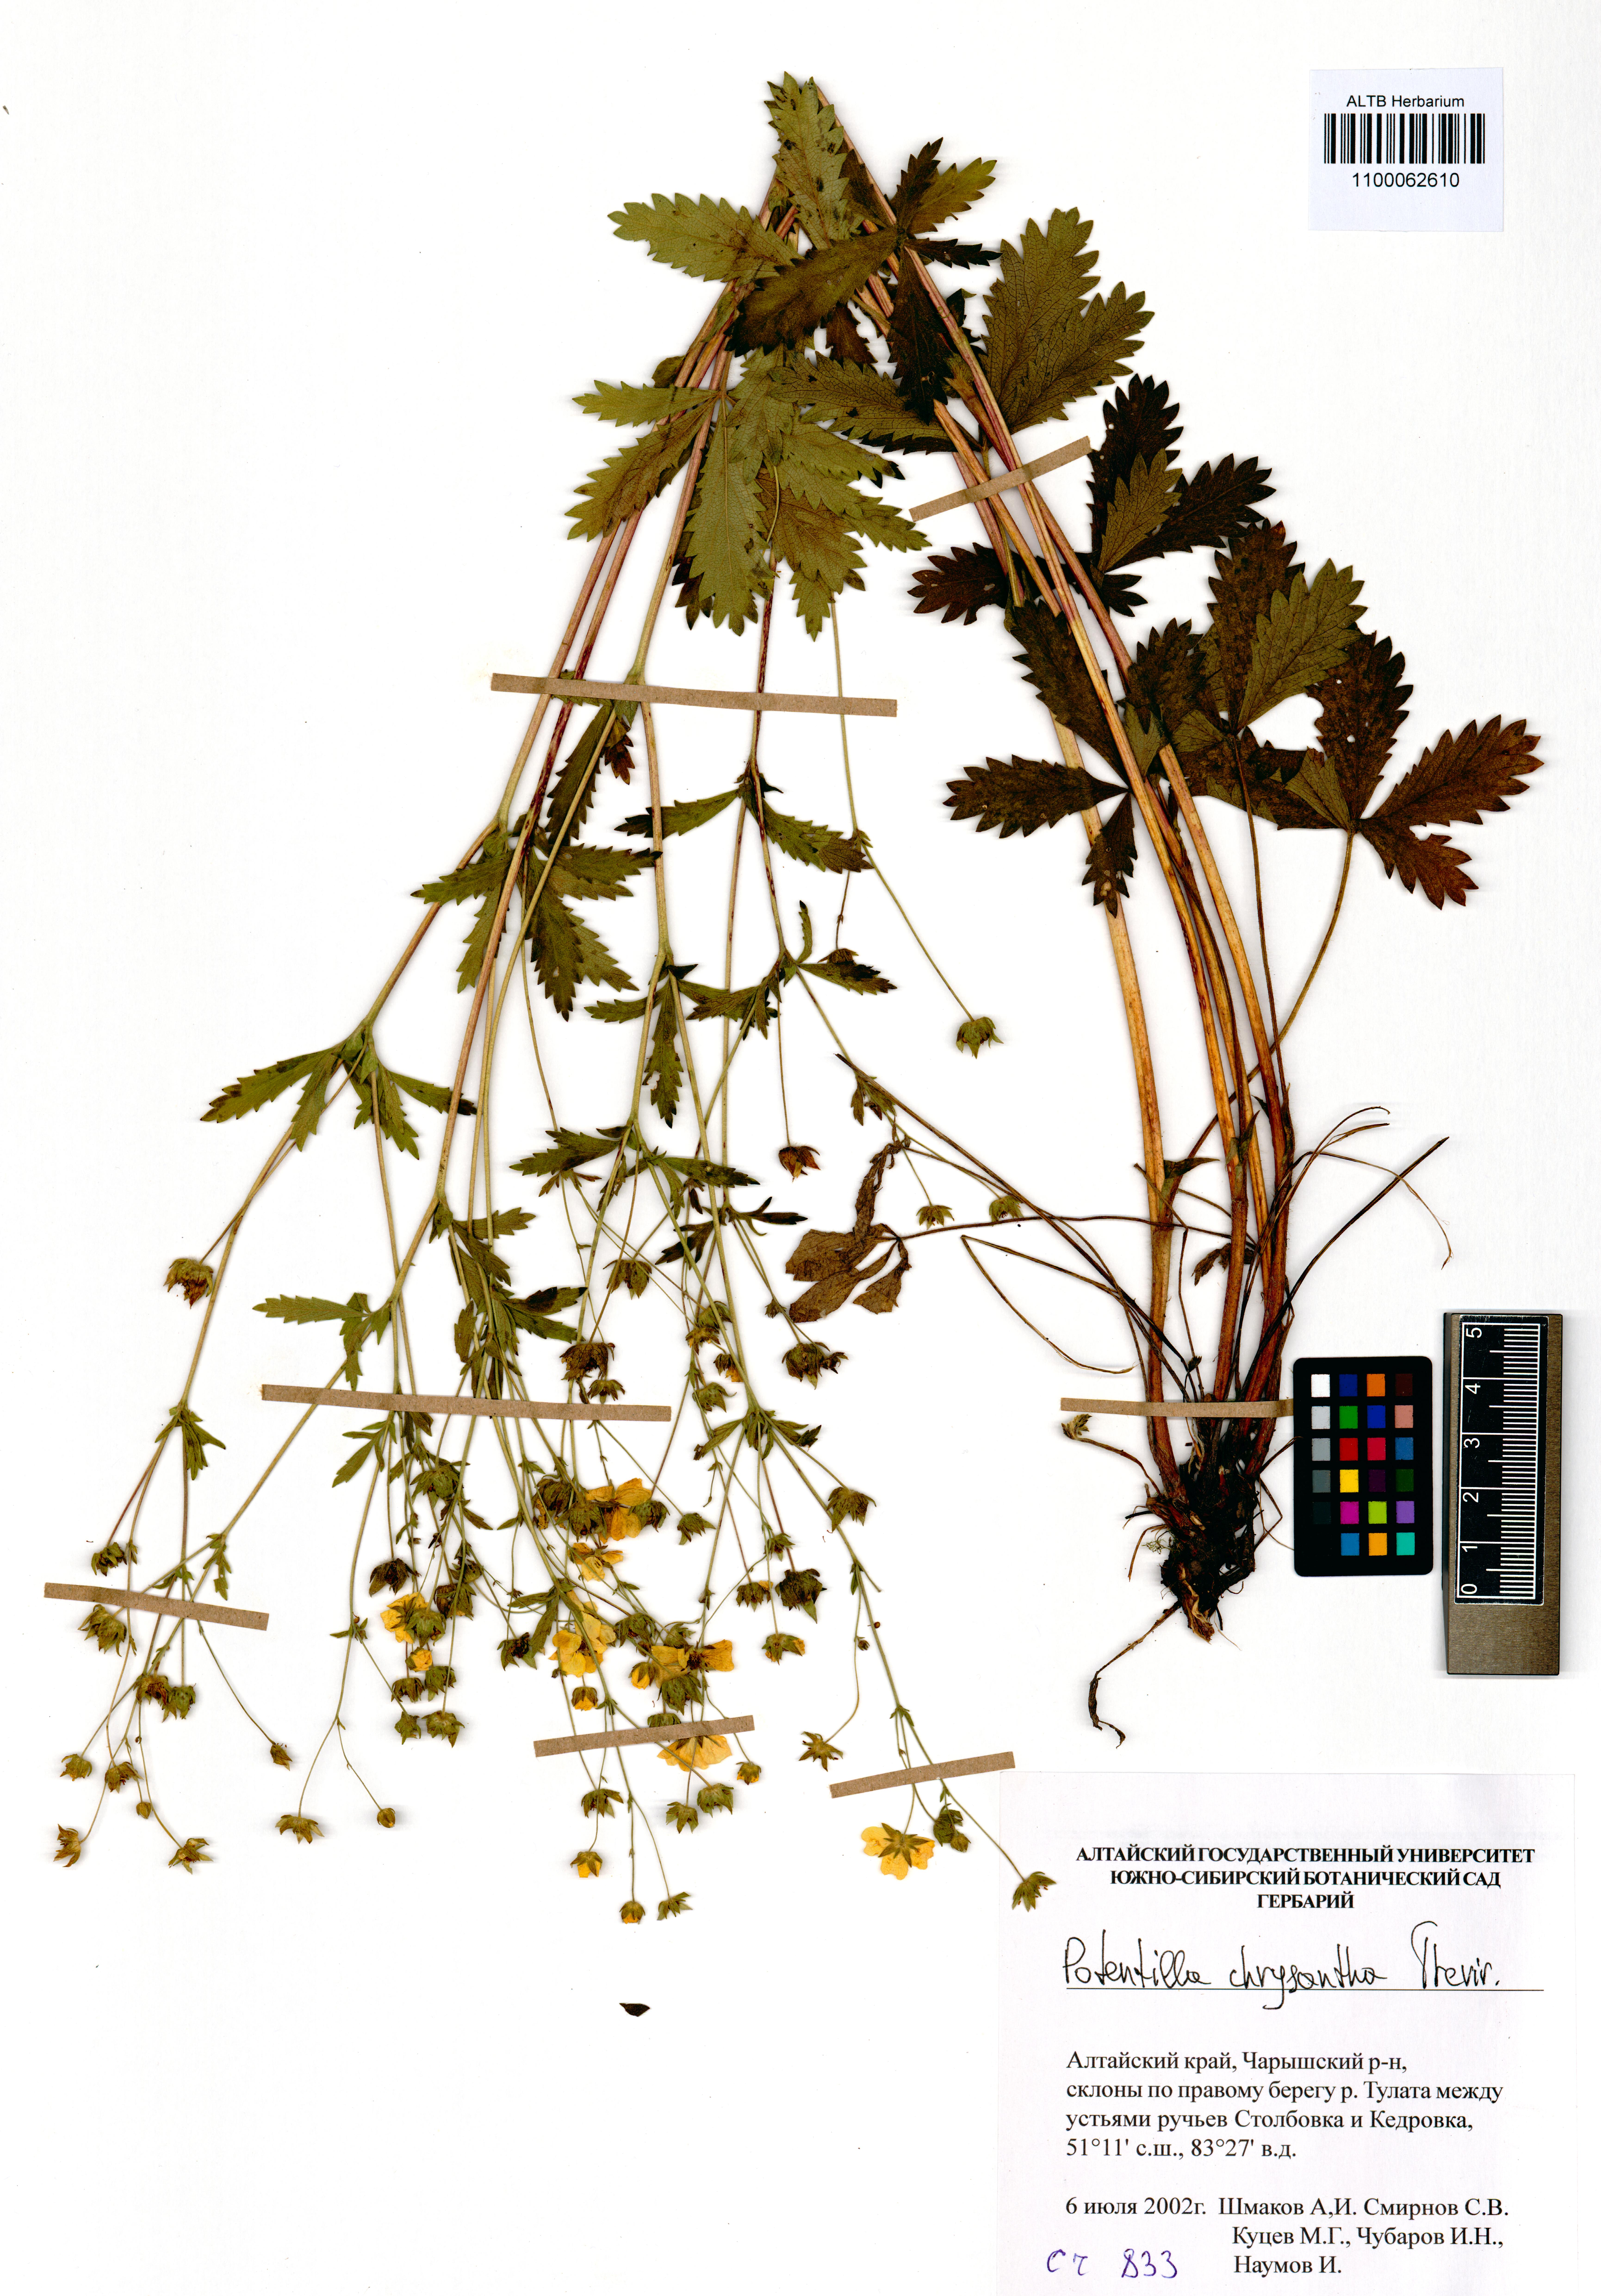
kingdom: Plantae
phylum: Tracheophyta
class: Magnoliopsida
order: Rosales
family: Rosaceae
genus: Potentilla
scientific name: Potentilla chrysantha
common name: Thuringian cinquefoil
